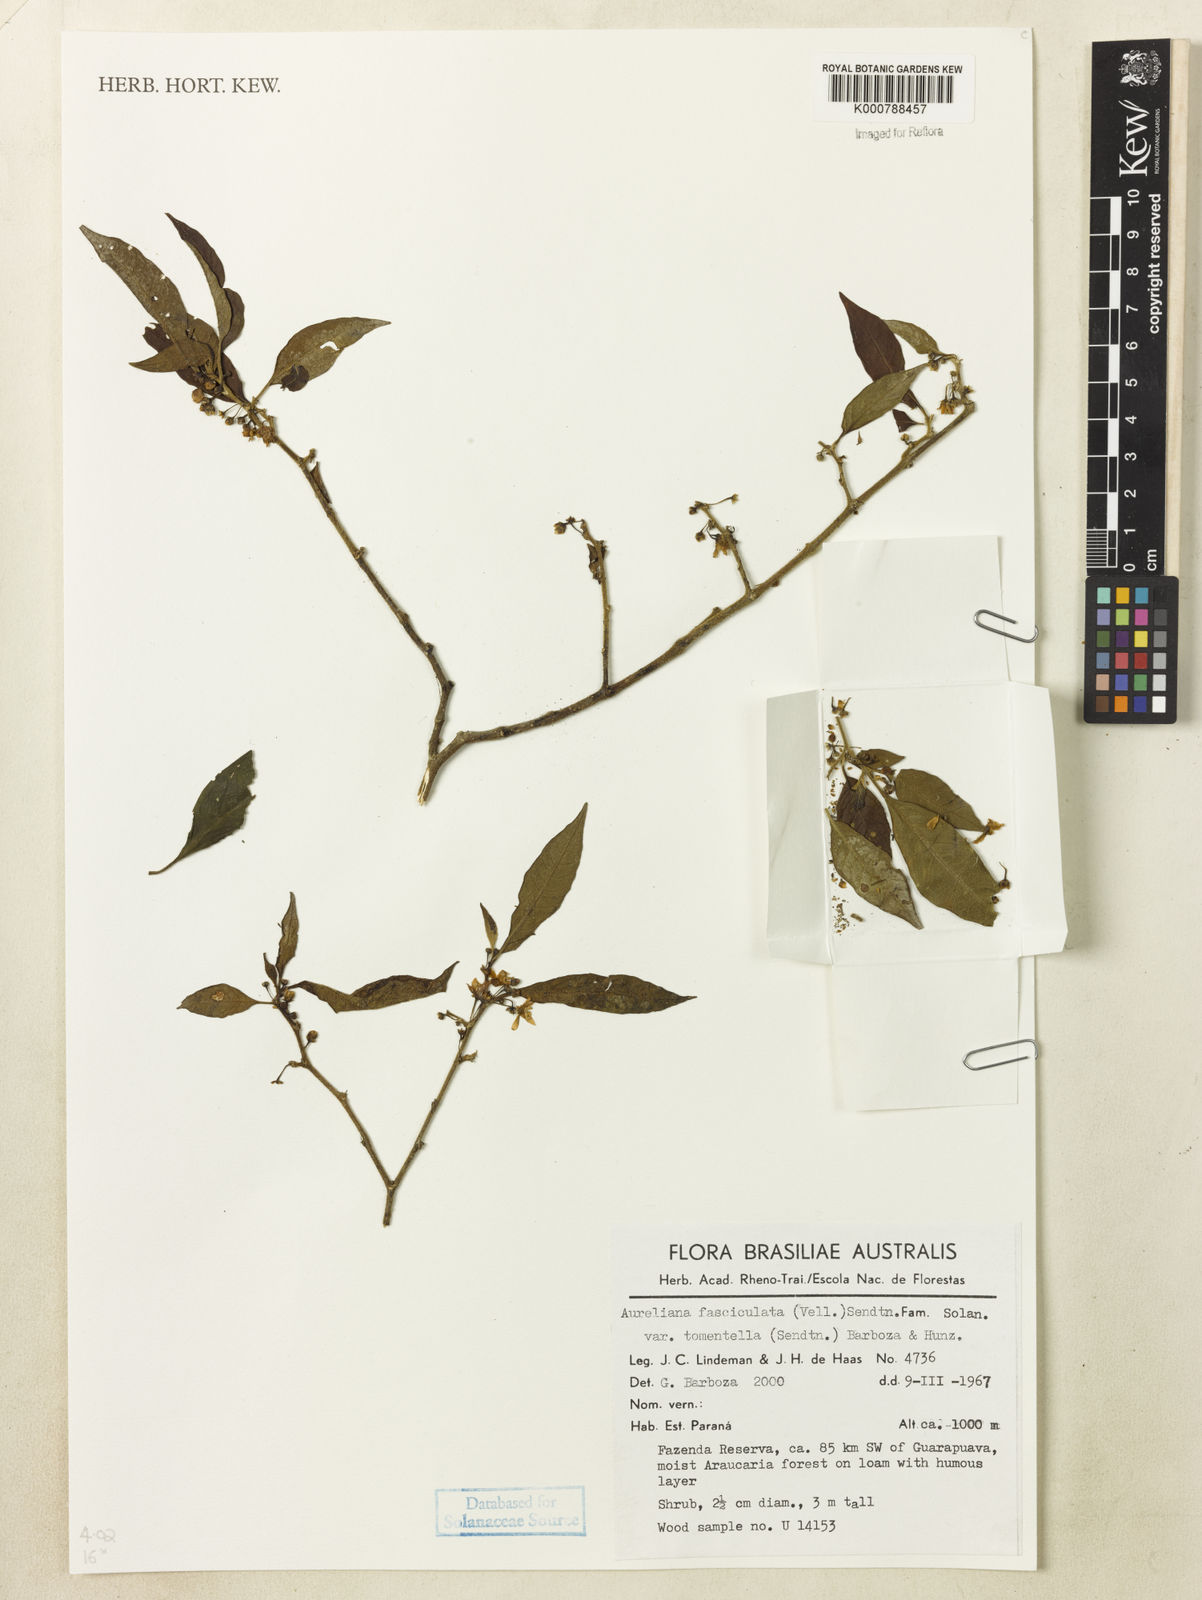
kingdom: Plantae
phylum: Tracheophyta
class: Magnoliopsida
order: Solanales
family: Solanaceae
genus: Athenaea
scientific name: Athenaea fasciculata
